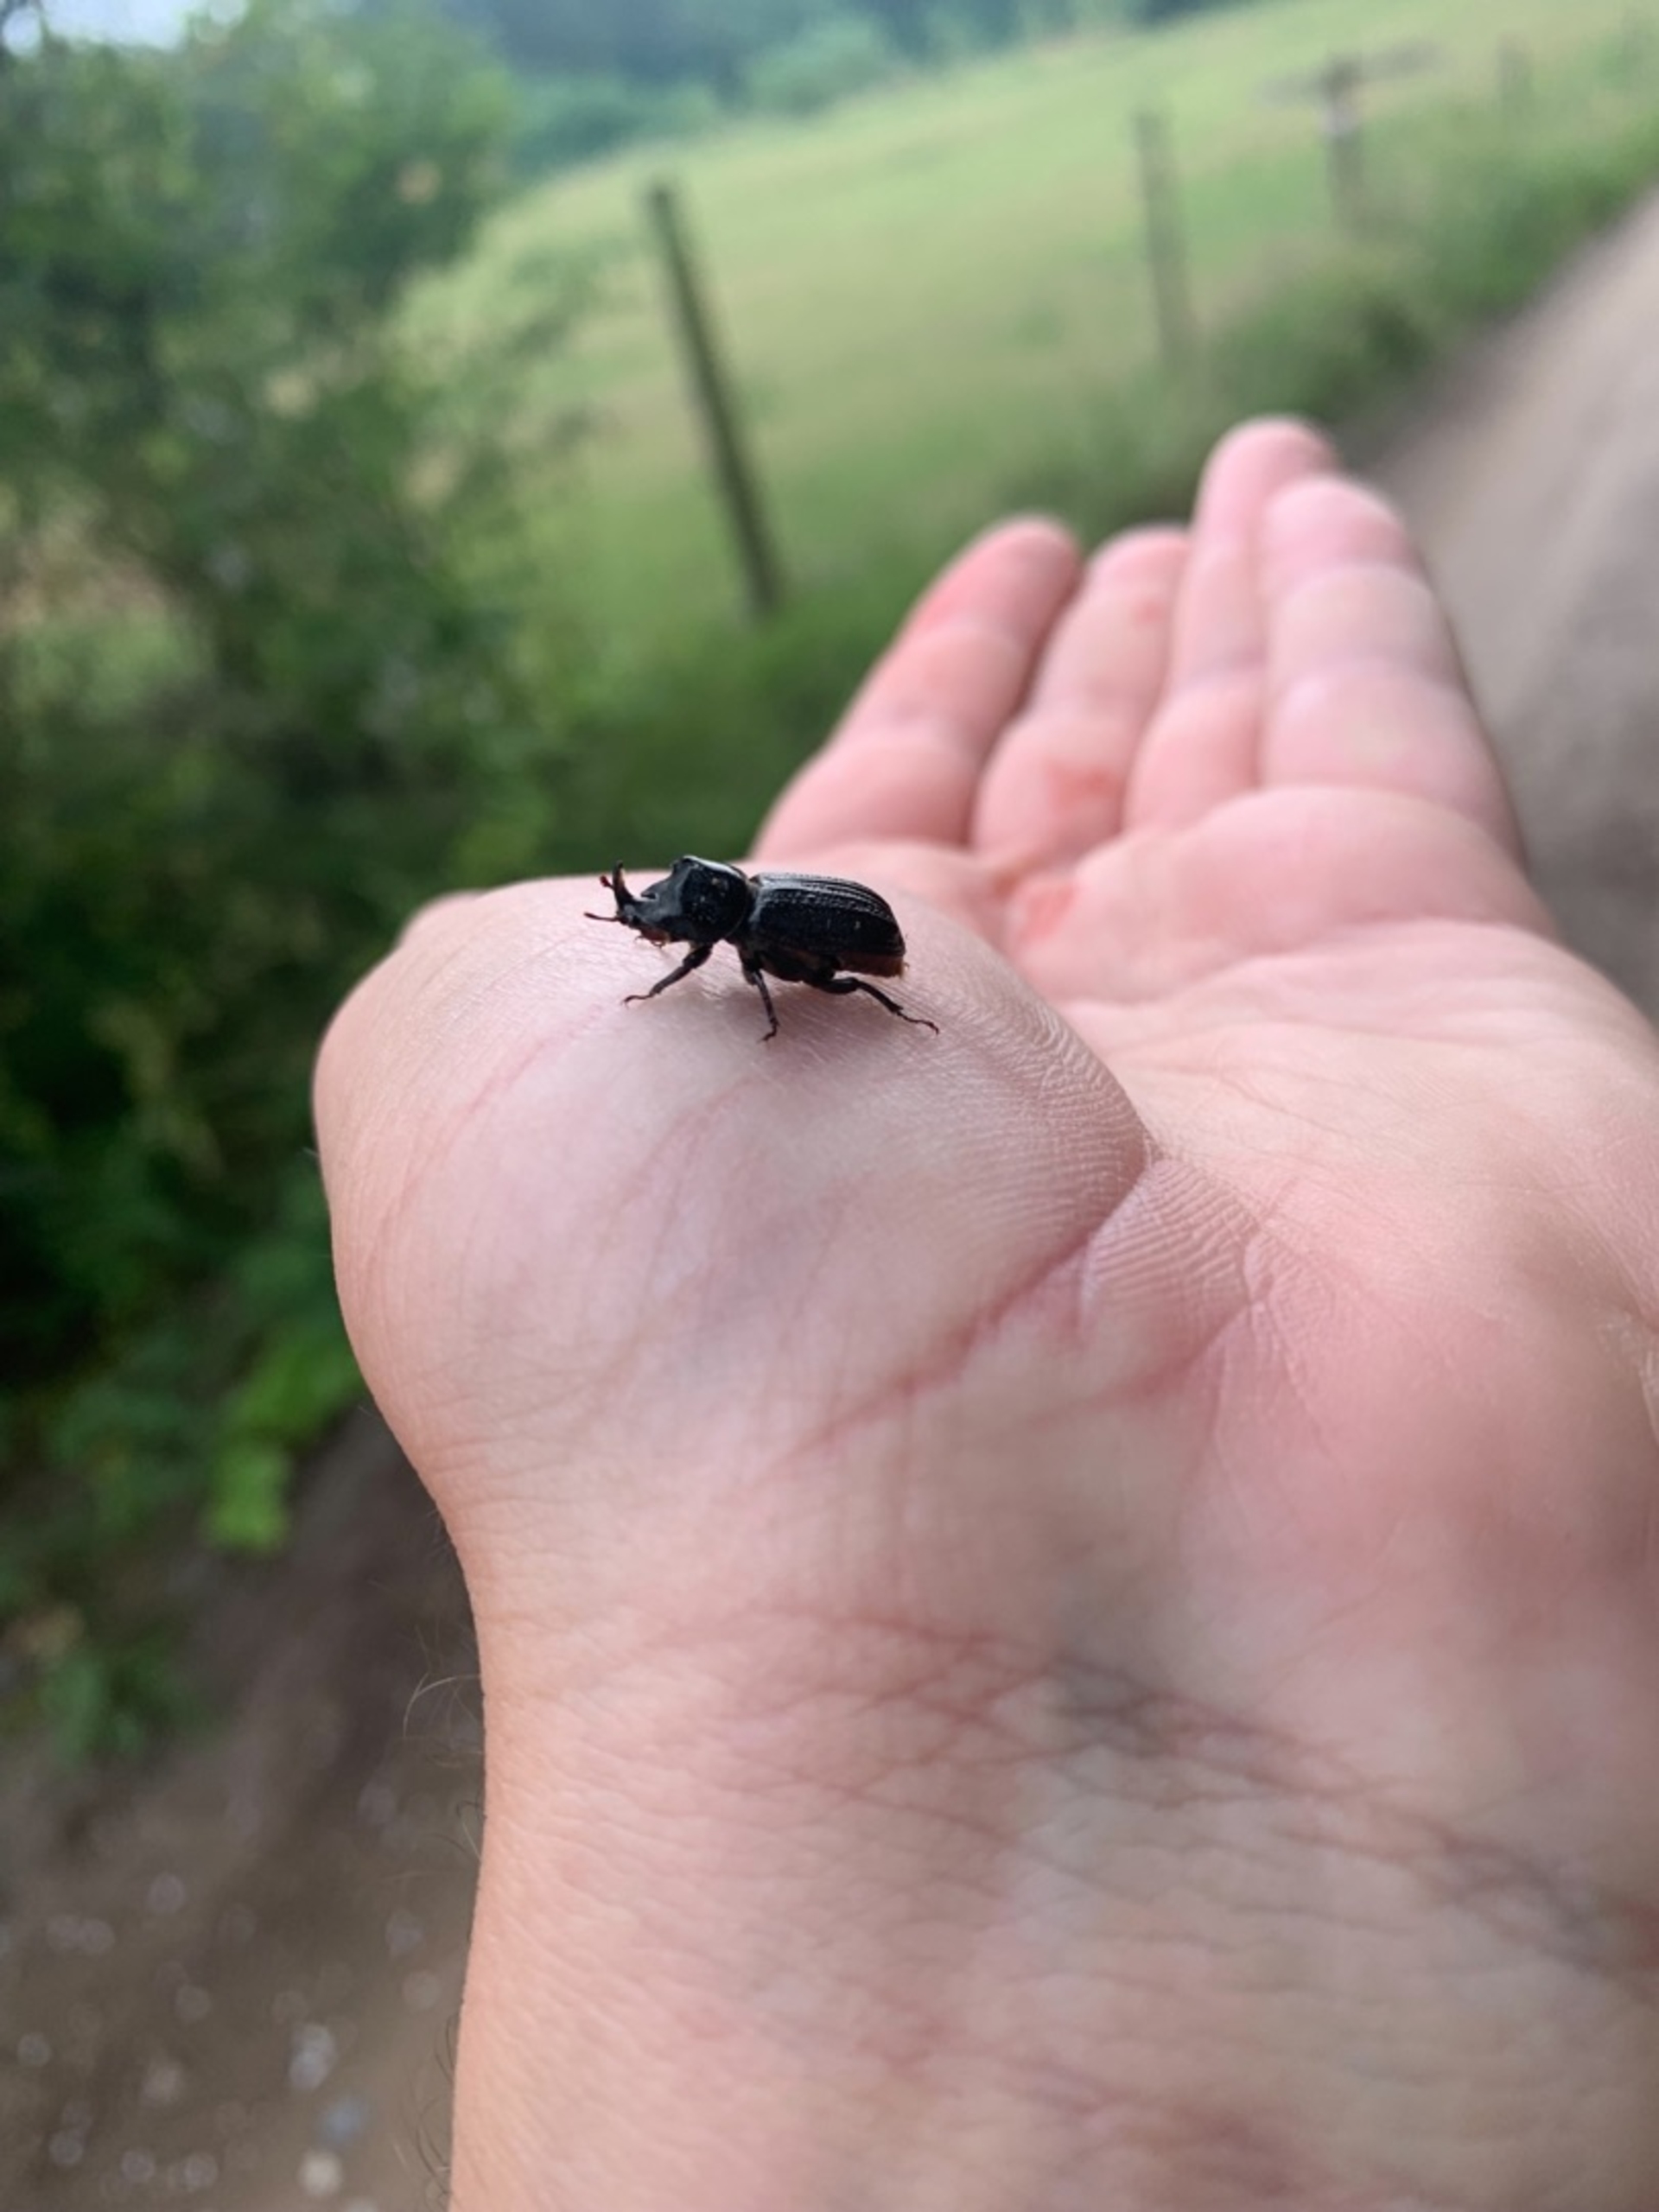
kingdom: Animalia
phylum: Arthropoda
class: Insecta
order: Coleoptera
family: Lucanidae
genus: Sinodendron
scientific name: Sinodendron cylindricum
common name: Valsehjort
